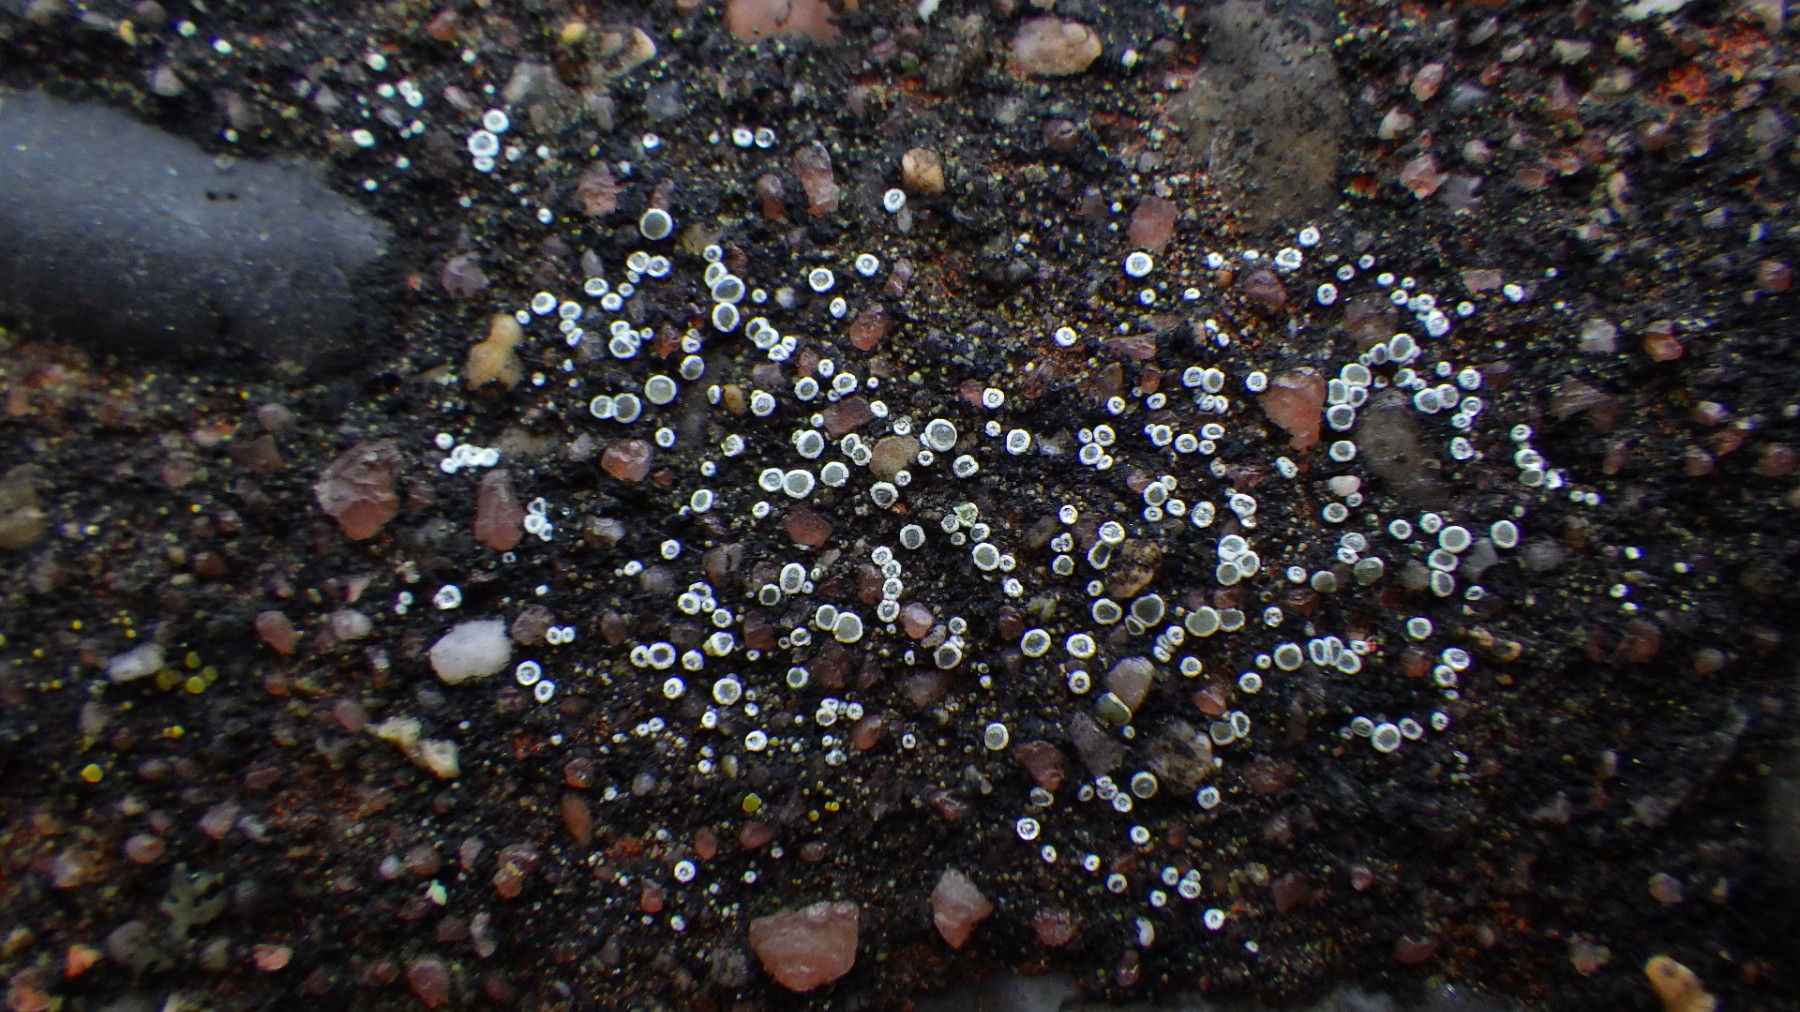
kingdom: Fungi
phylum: Ascomycota
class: Lecanoromycetes
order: Lecanorales
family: Lecanoraceae
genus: Polyozosia
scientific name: Polyozosia semipallida
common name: vinetorin-kantskivelav
